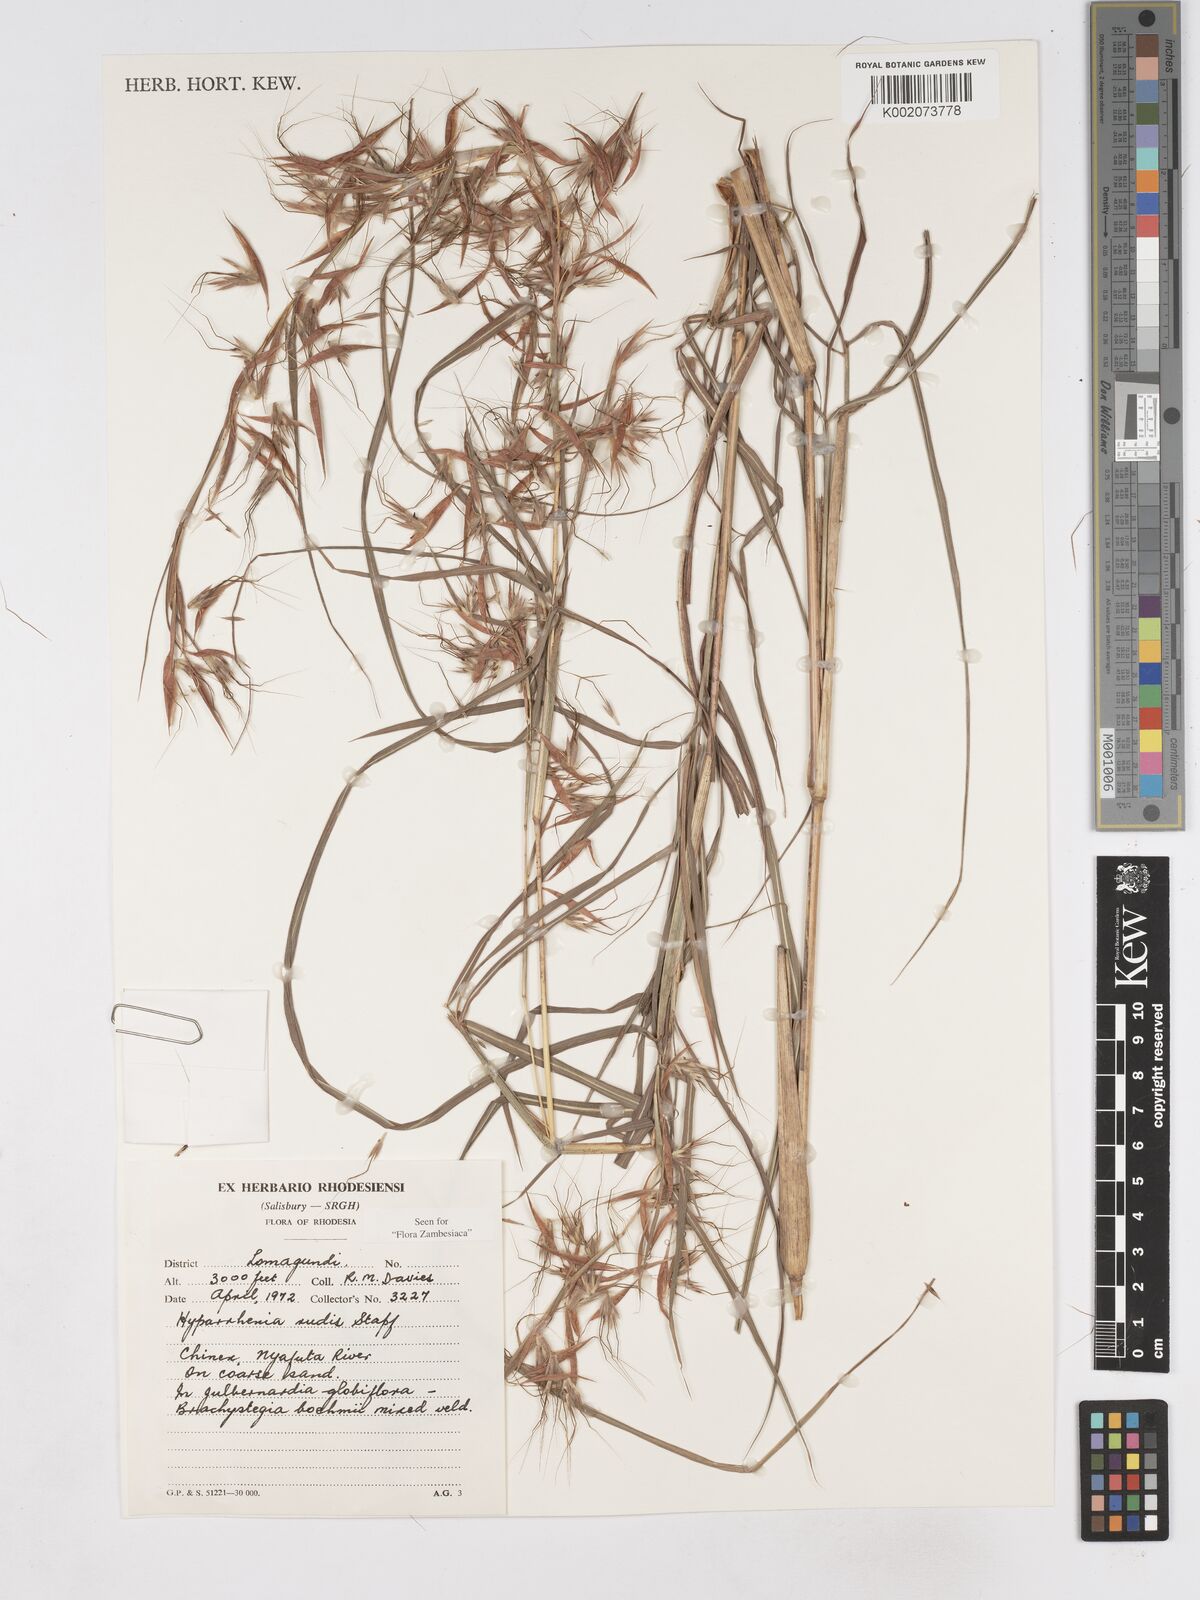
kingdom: Plantae
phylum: Tracheophyta
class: Liliopsida
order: Poales
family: Poaceae
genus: Hyparrhenia
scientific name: Hyparrhenia rudis
